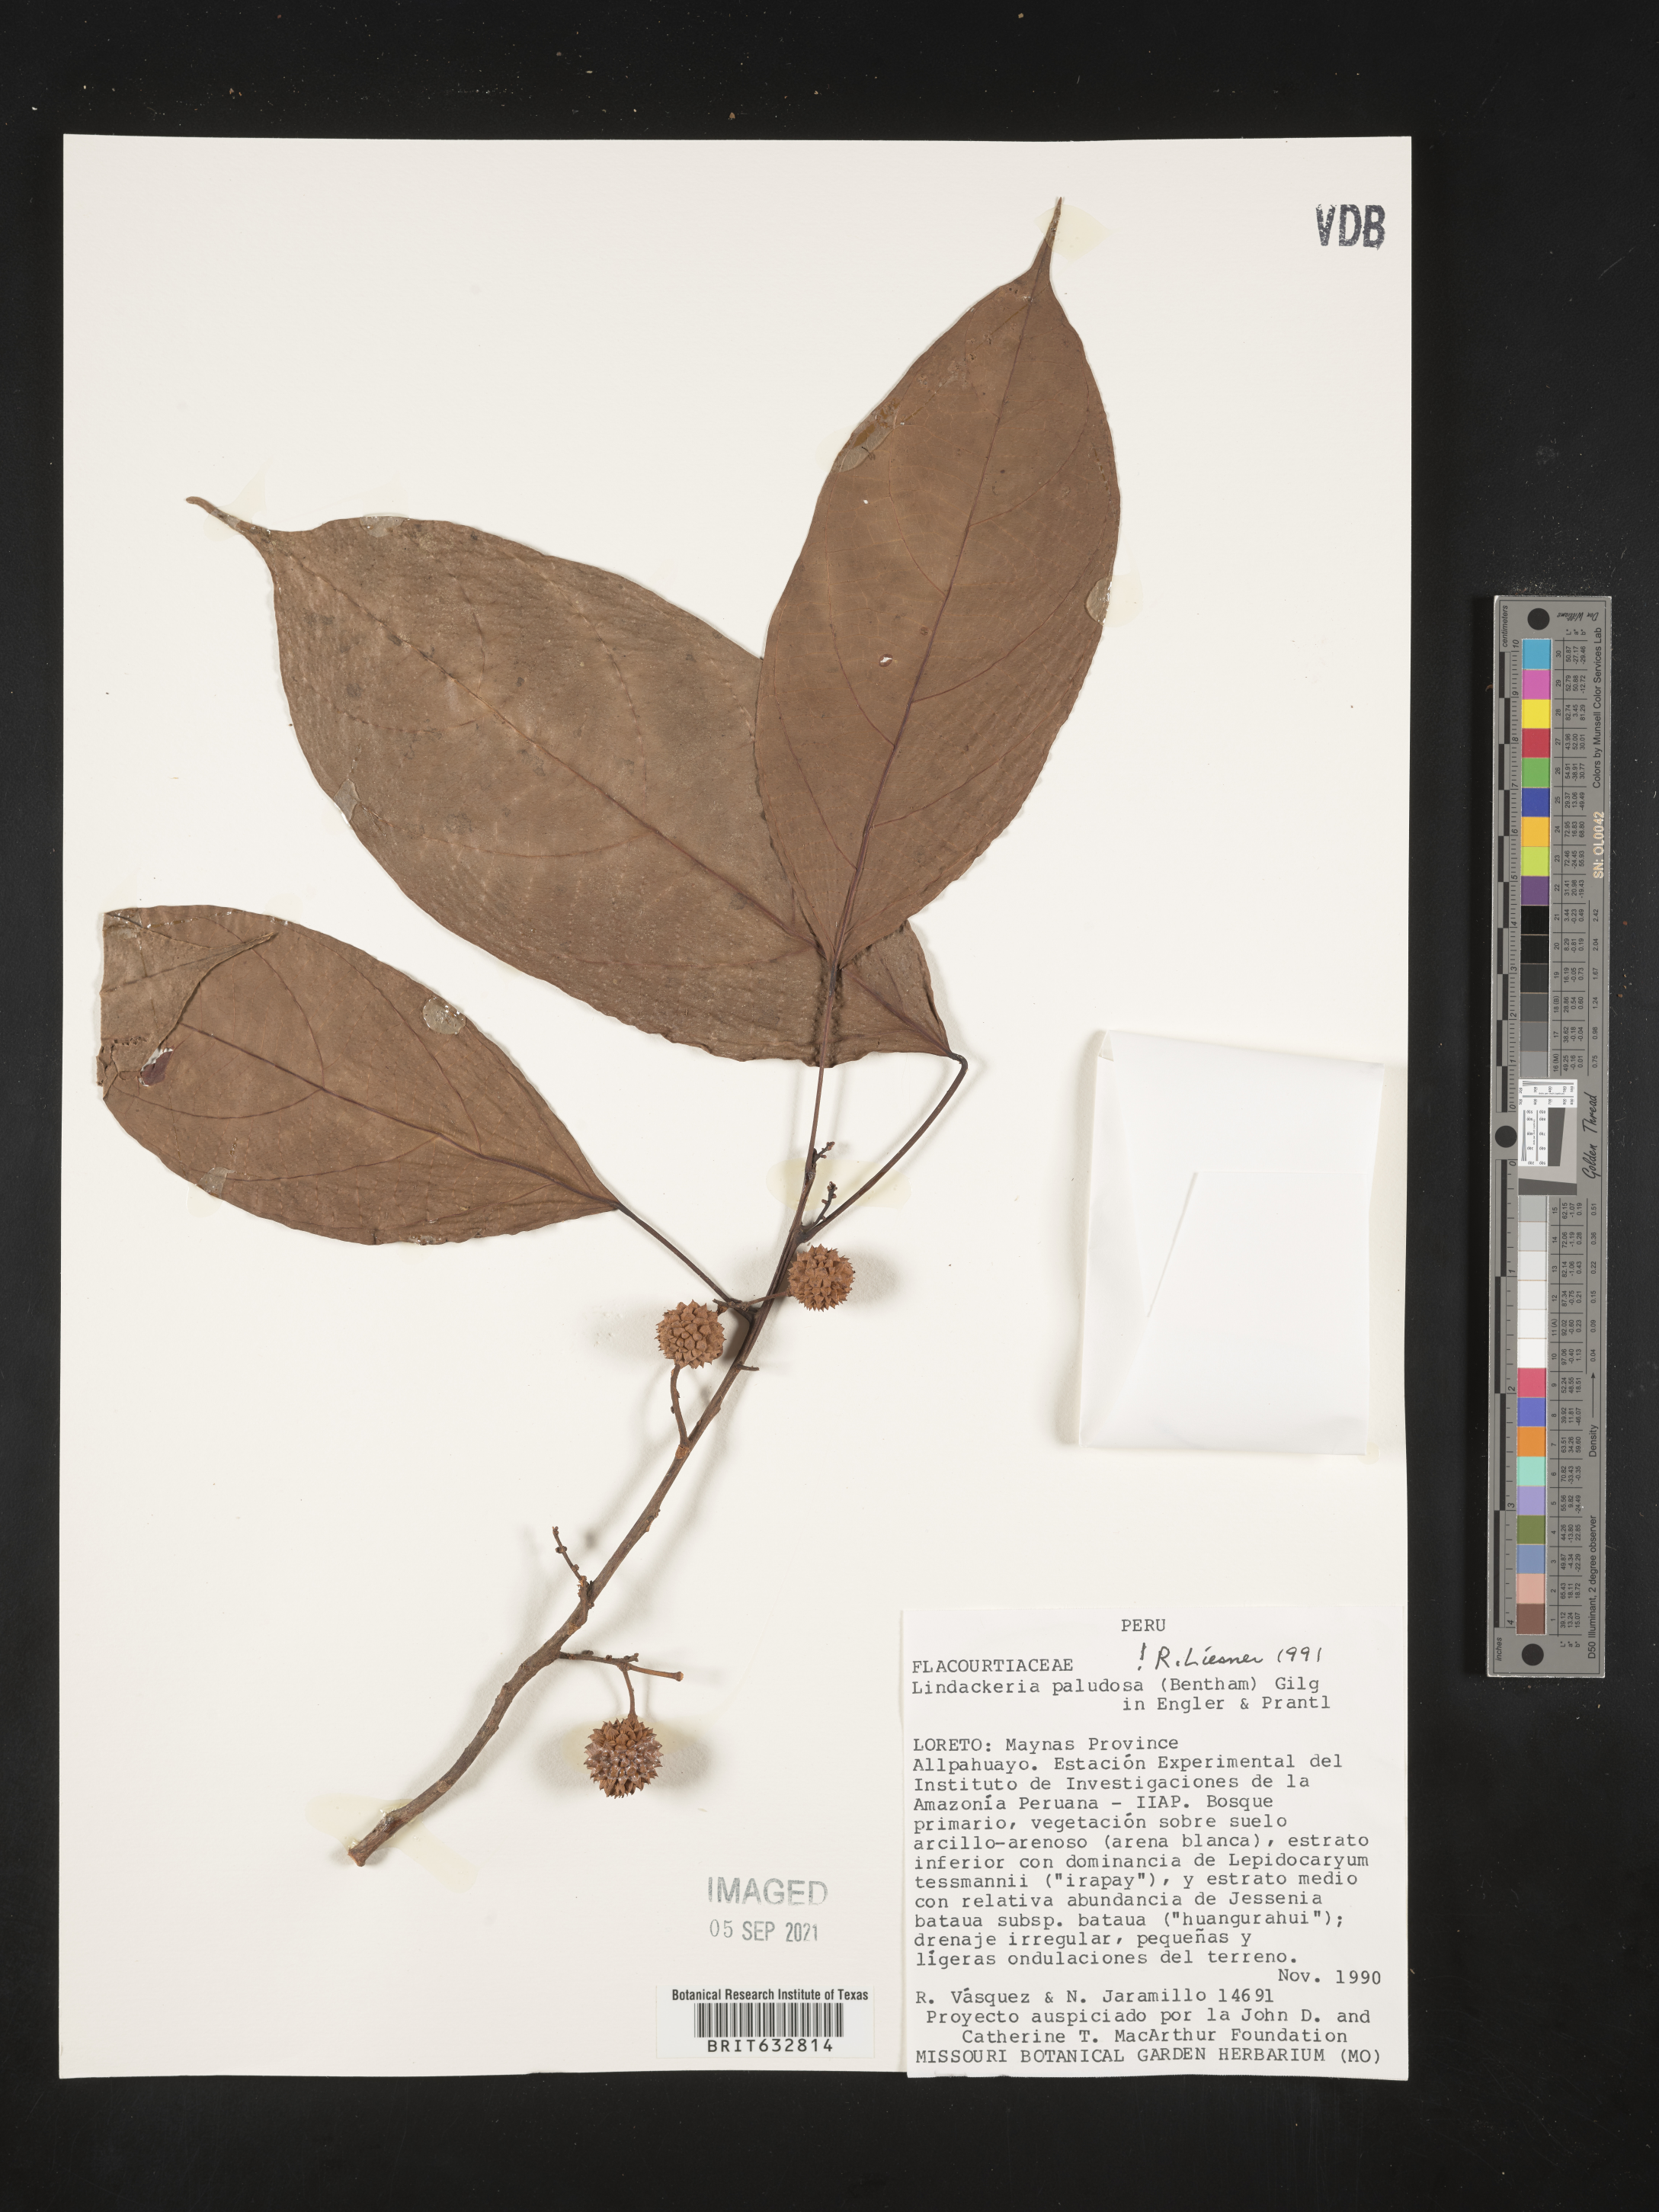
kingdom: Plantae
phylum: Tracheophyta
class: Magnoliopsida
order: Malpighiales
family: Achariaceae
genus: Lindackeria
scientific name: Lindackeria paludosa
